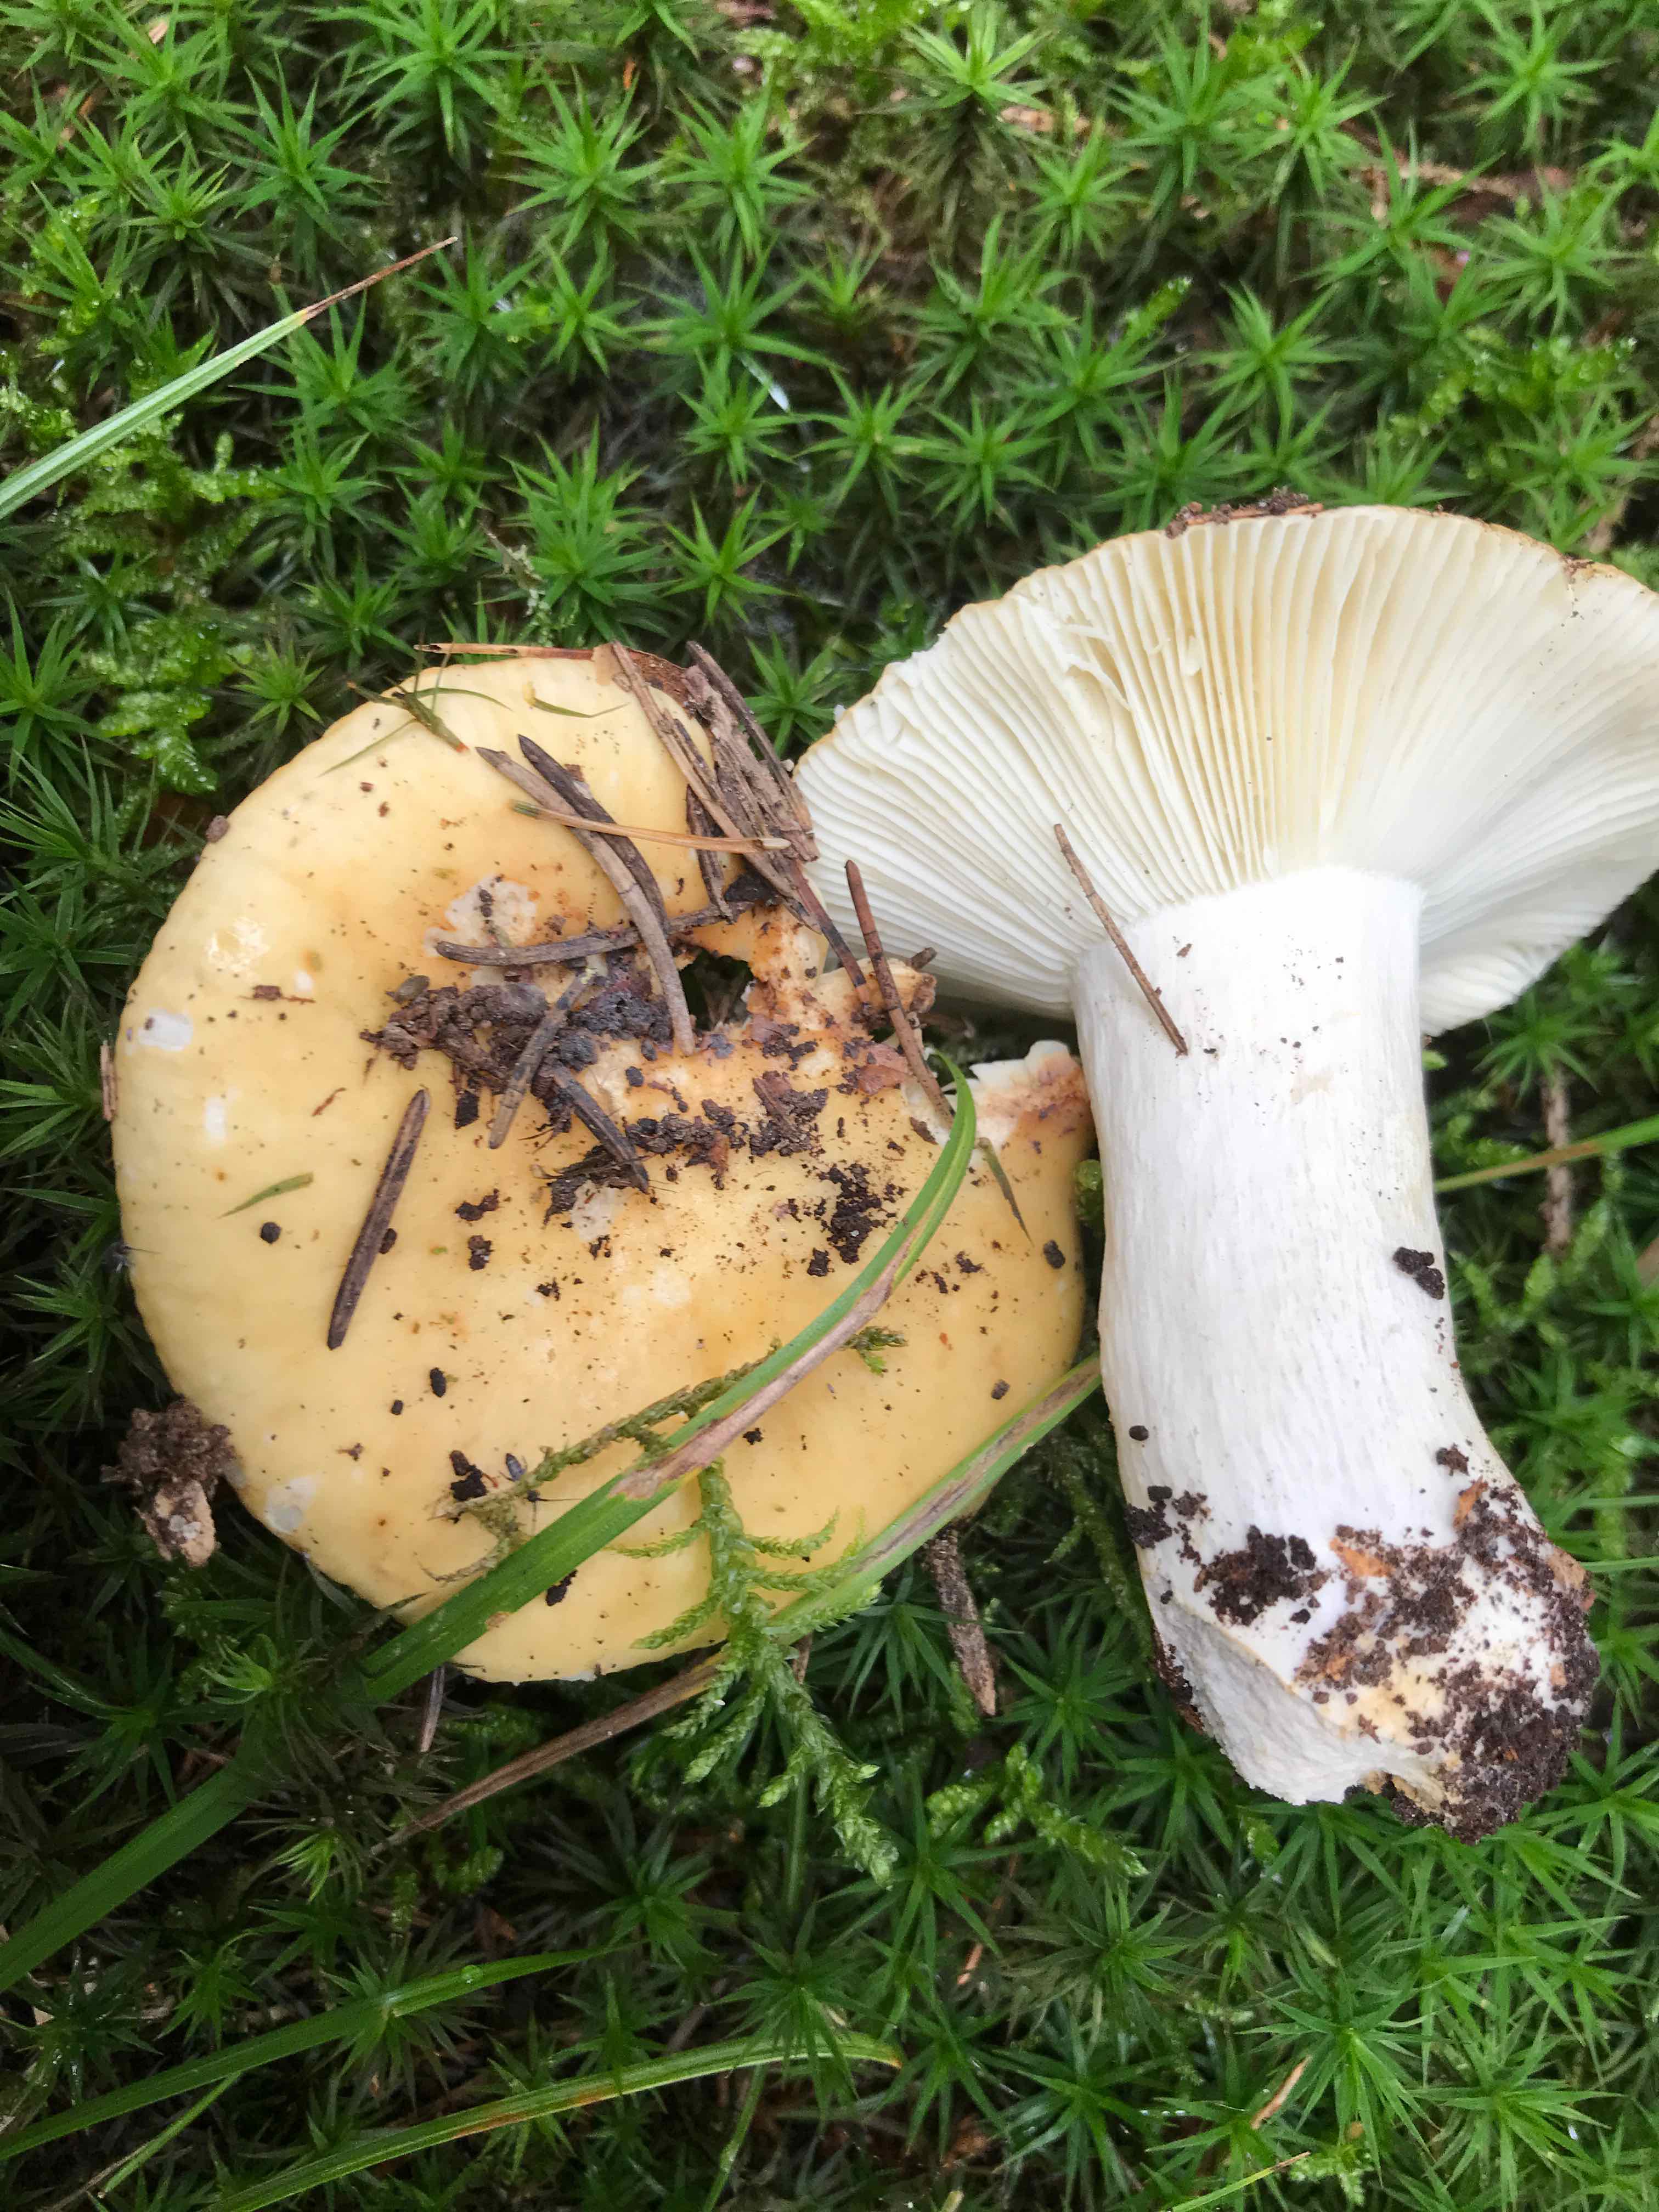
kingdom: Fungi
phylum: Basidiomycota
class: Agaricomycetes
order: Russulales
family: Russulaceae
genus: Russula
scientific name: Russula ochroleuca
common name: okkergul skørhat
